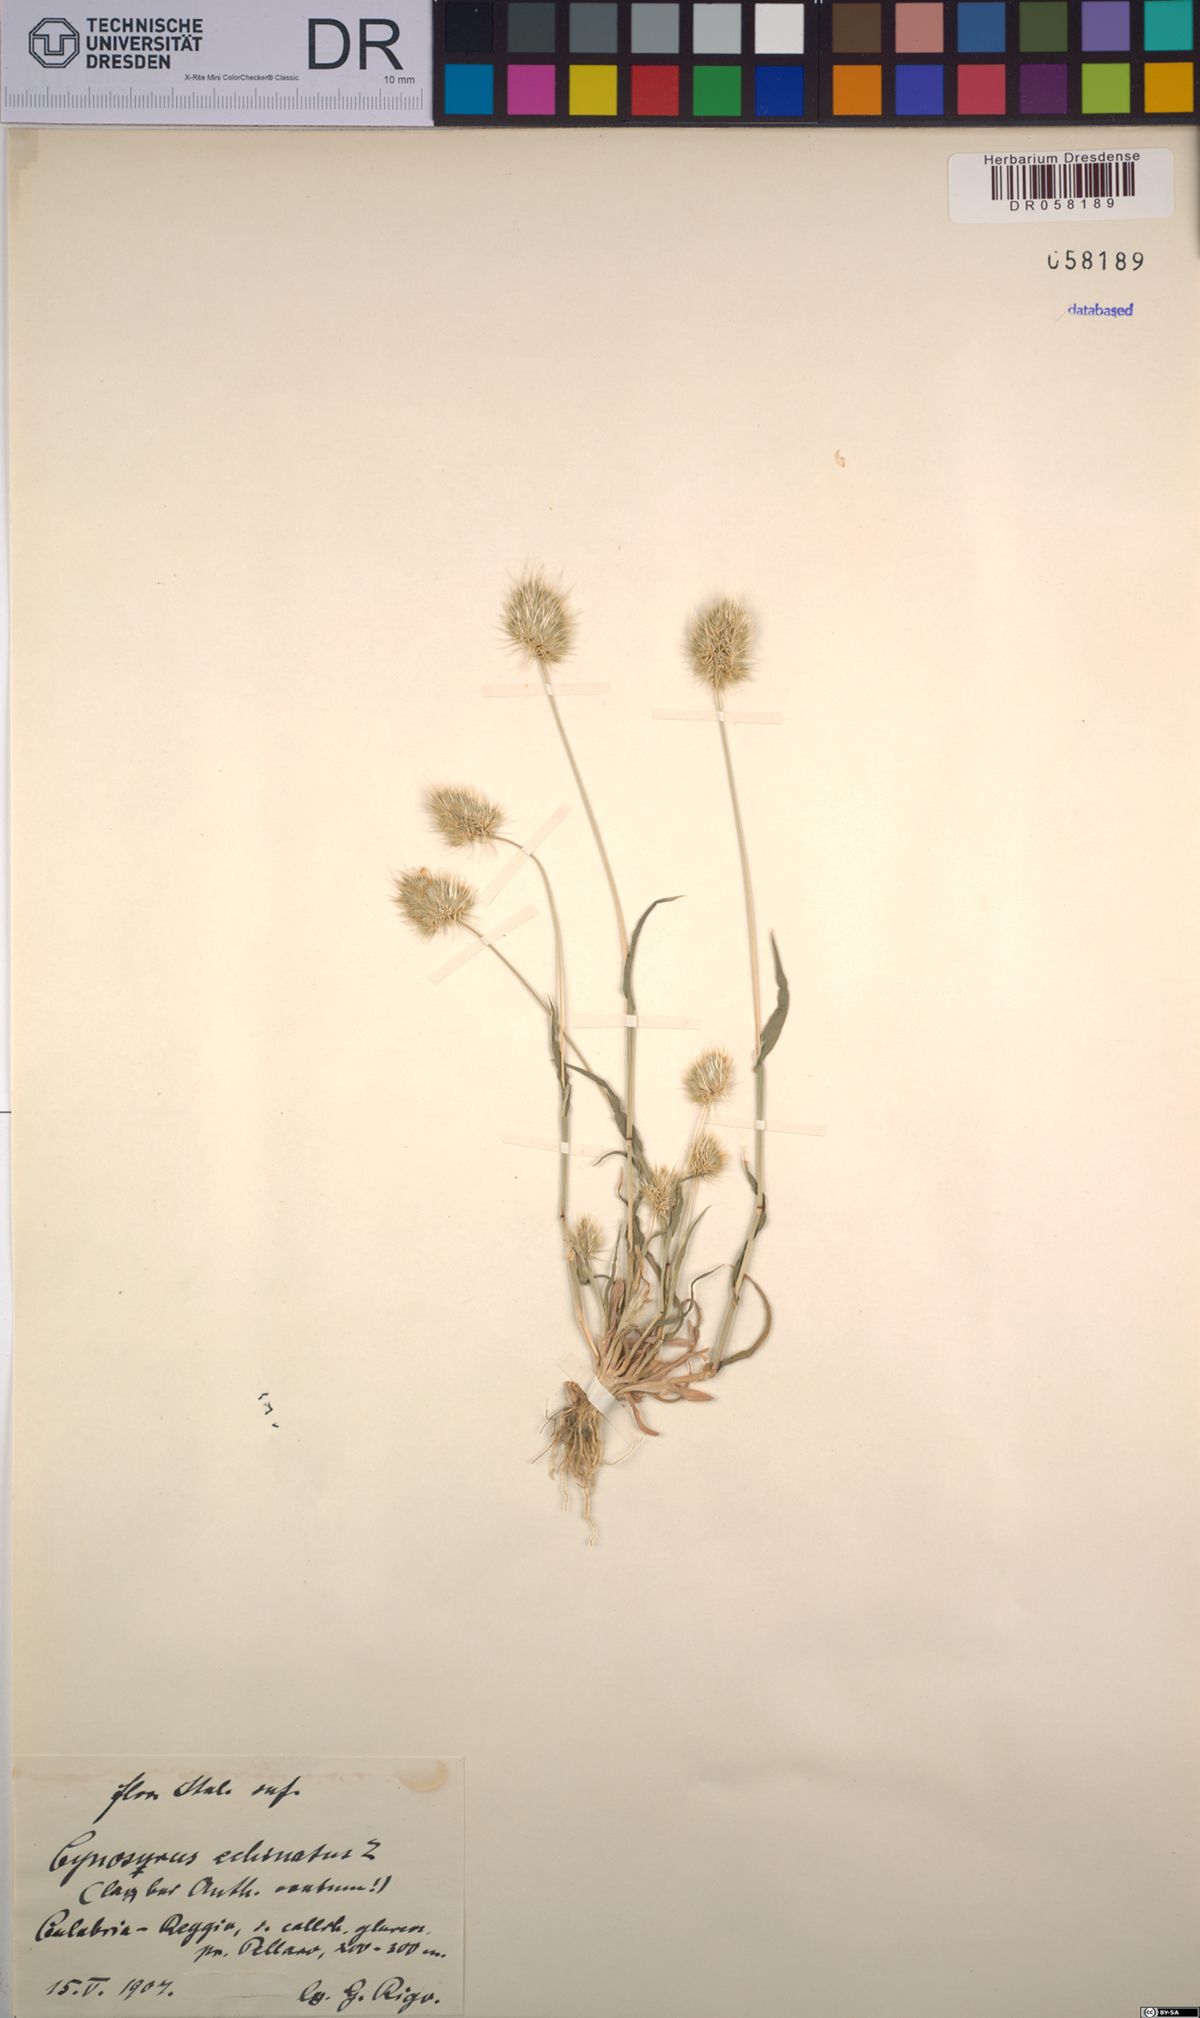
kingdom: Plantae
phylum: Tracheophyta
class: Liliopsida
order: Poales
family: Poaceae
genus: Cynosurus
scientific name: Cynosurus echinatus
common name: Rough dog's-tail
